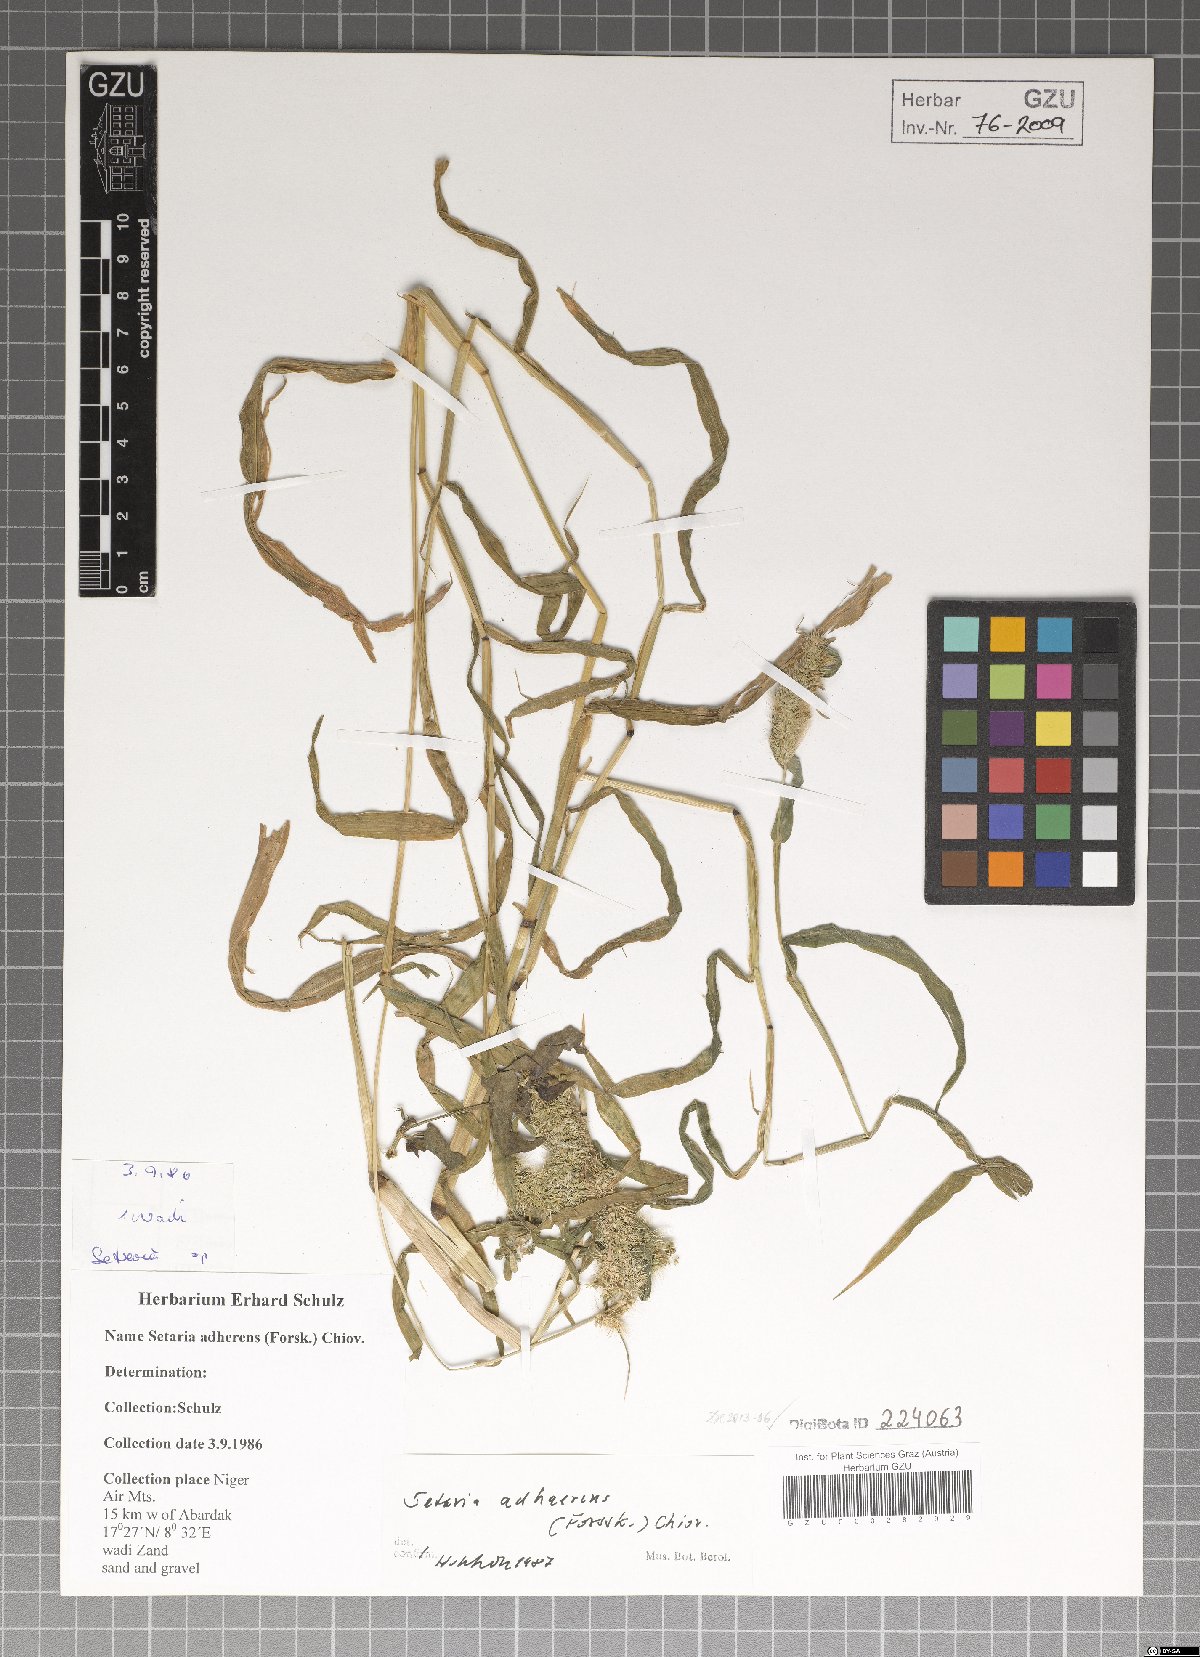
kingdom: Plantae
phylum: Tracheophyta
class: Liliopsida
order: Poales
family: Poaceae
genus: Setaria
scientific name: Setaria adhaerens
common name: Adherent bristle-grass
